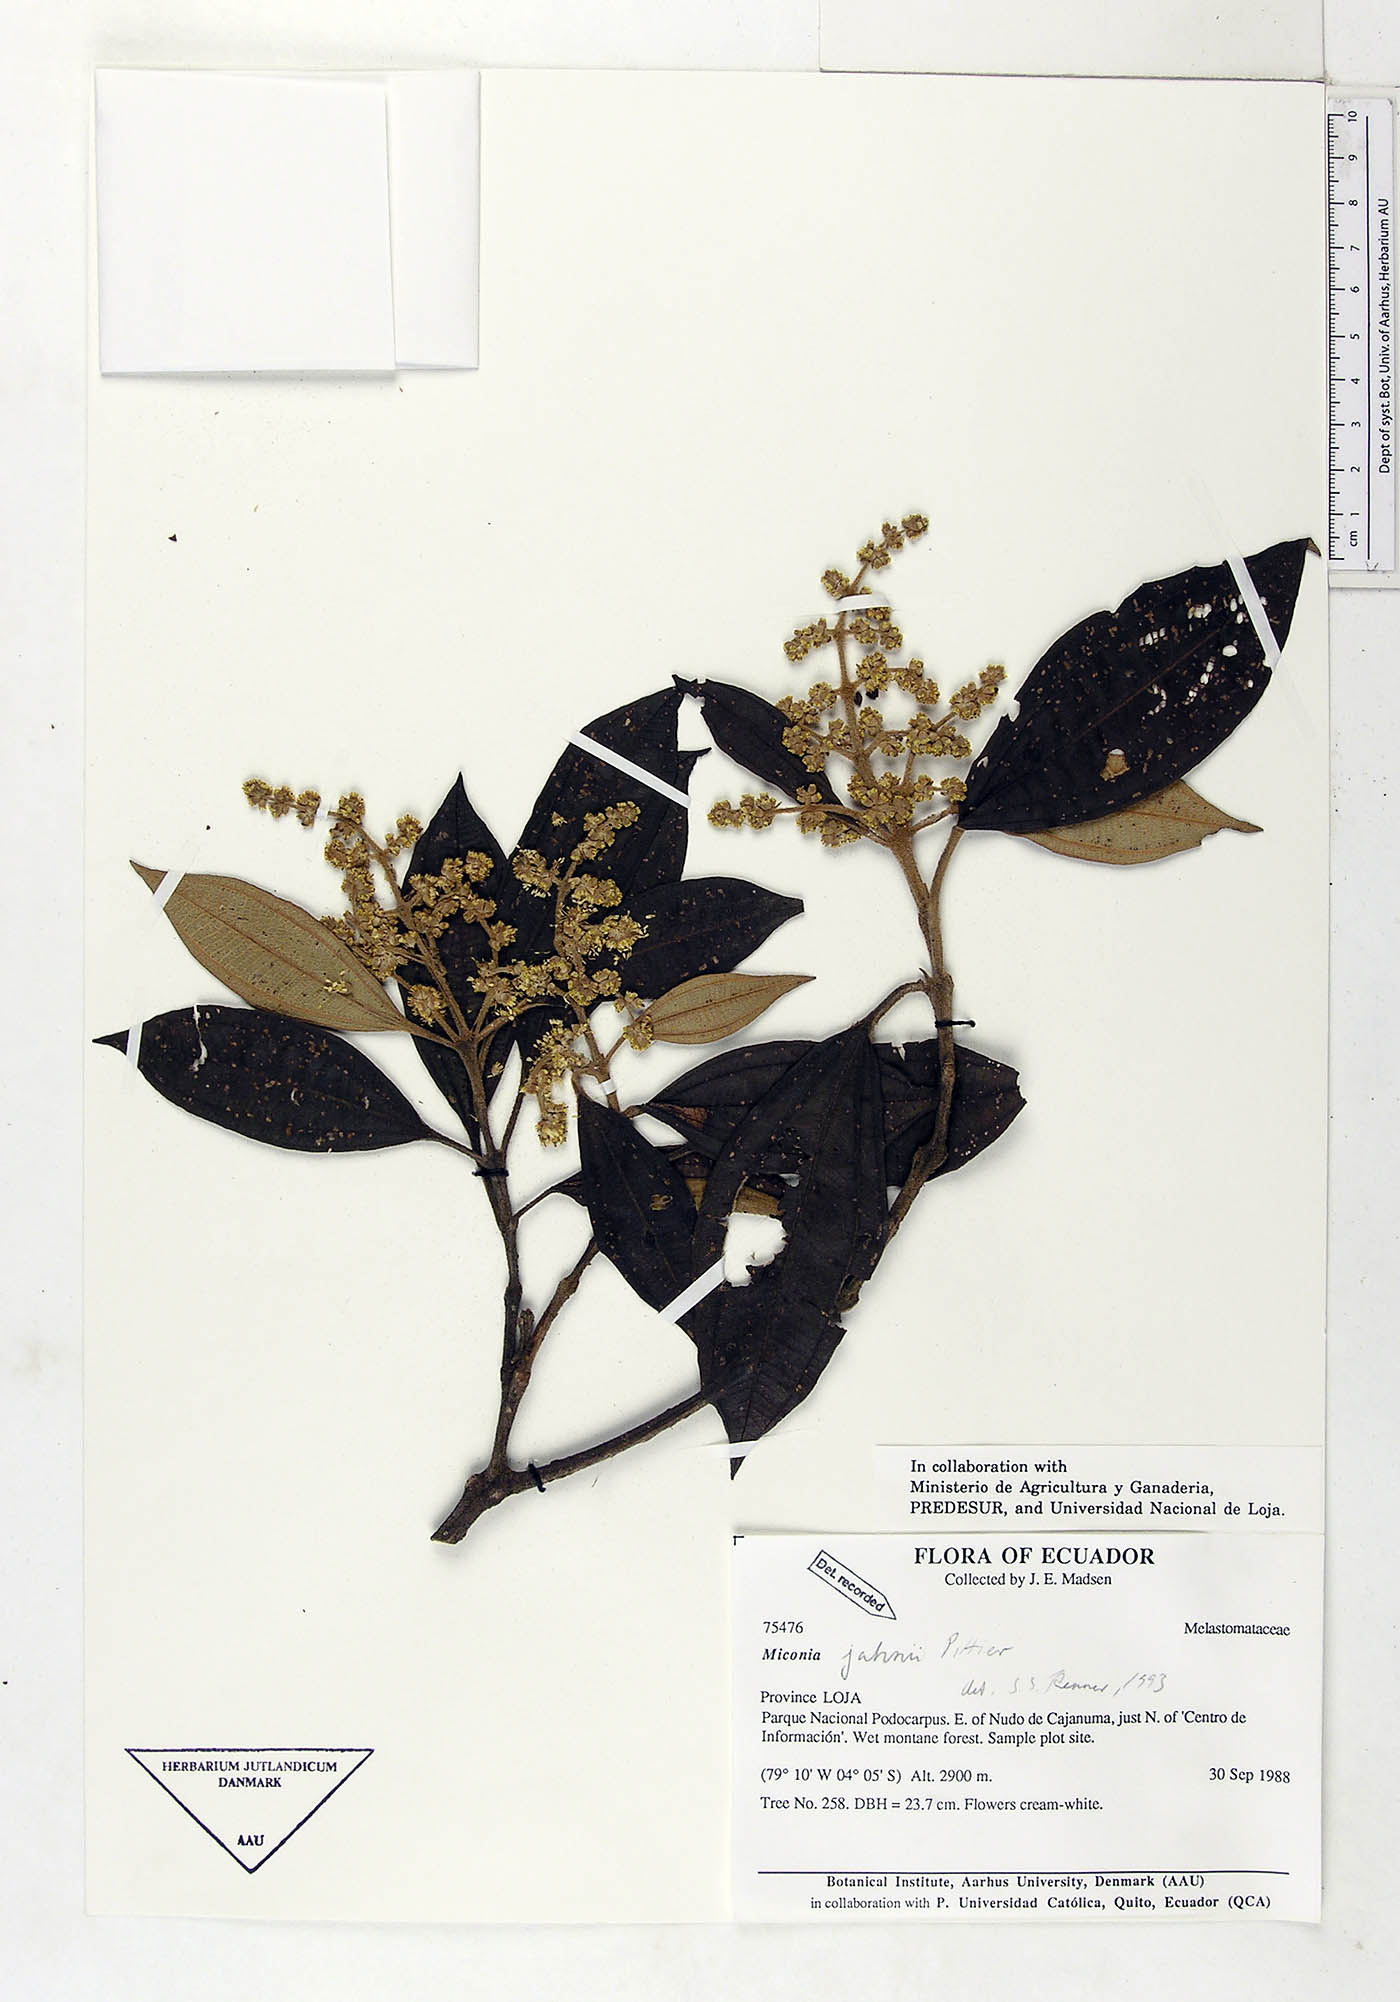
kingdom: Plantae
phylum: Tracheophyta
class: Magnoliopsida
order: Myrtales
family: Melastomataceae
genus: Miconia
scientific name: Miconia jahnii
